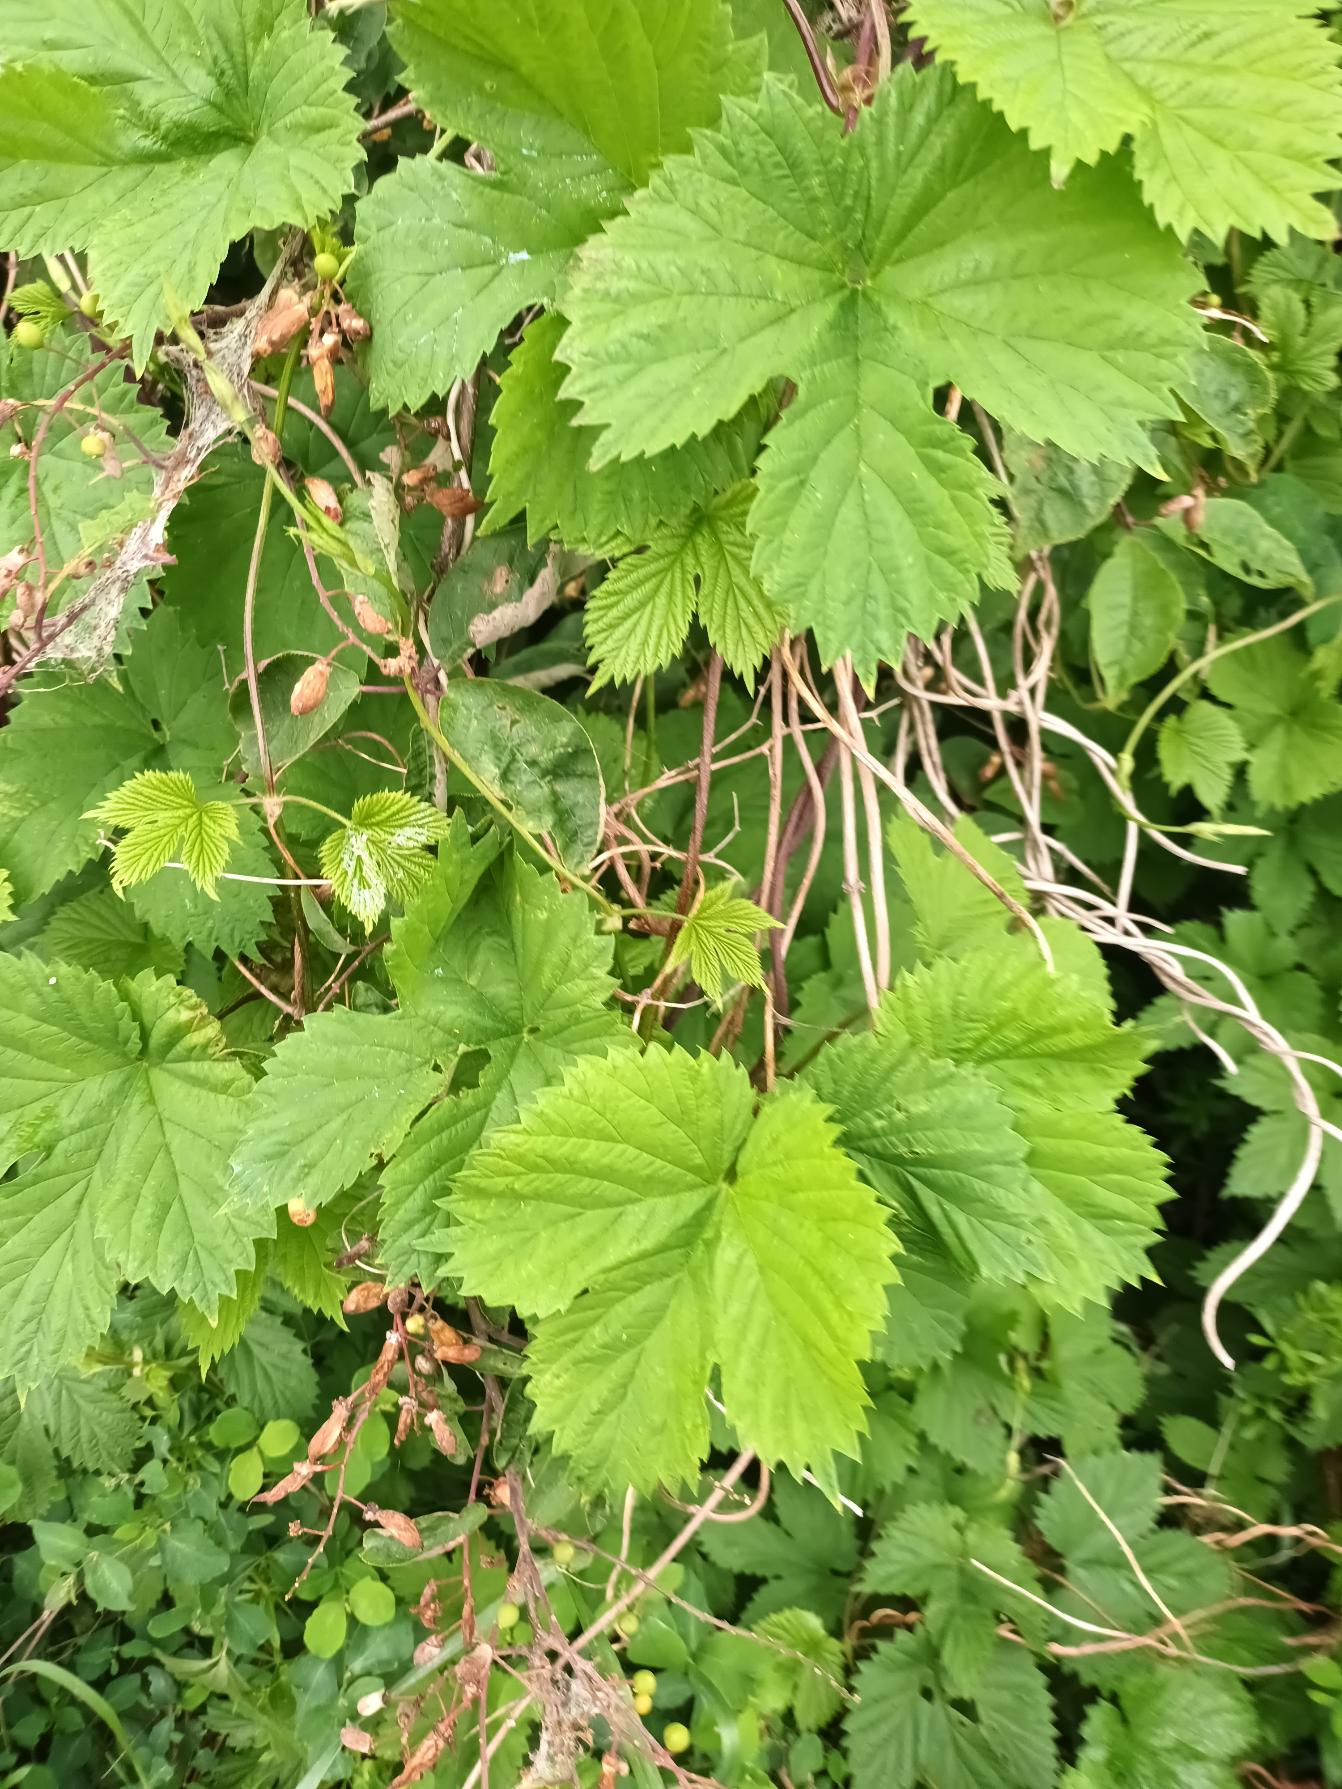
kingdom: Plantae
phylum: Tracheophyta
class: Magnoliopsida
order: Rosales
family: Cannabaceae
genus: Humulus
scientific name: Humulus lupulus
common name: Humle
